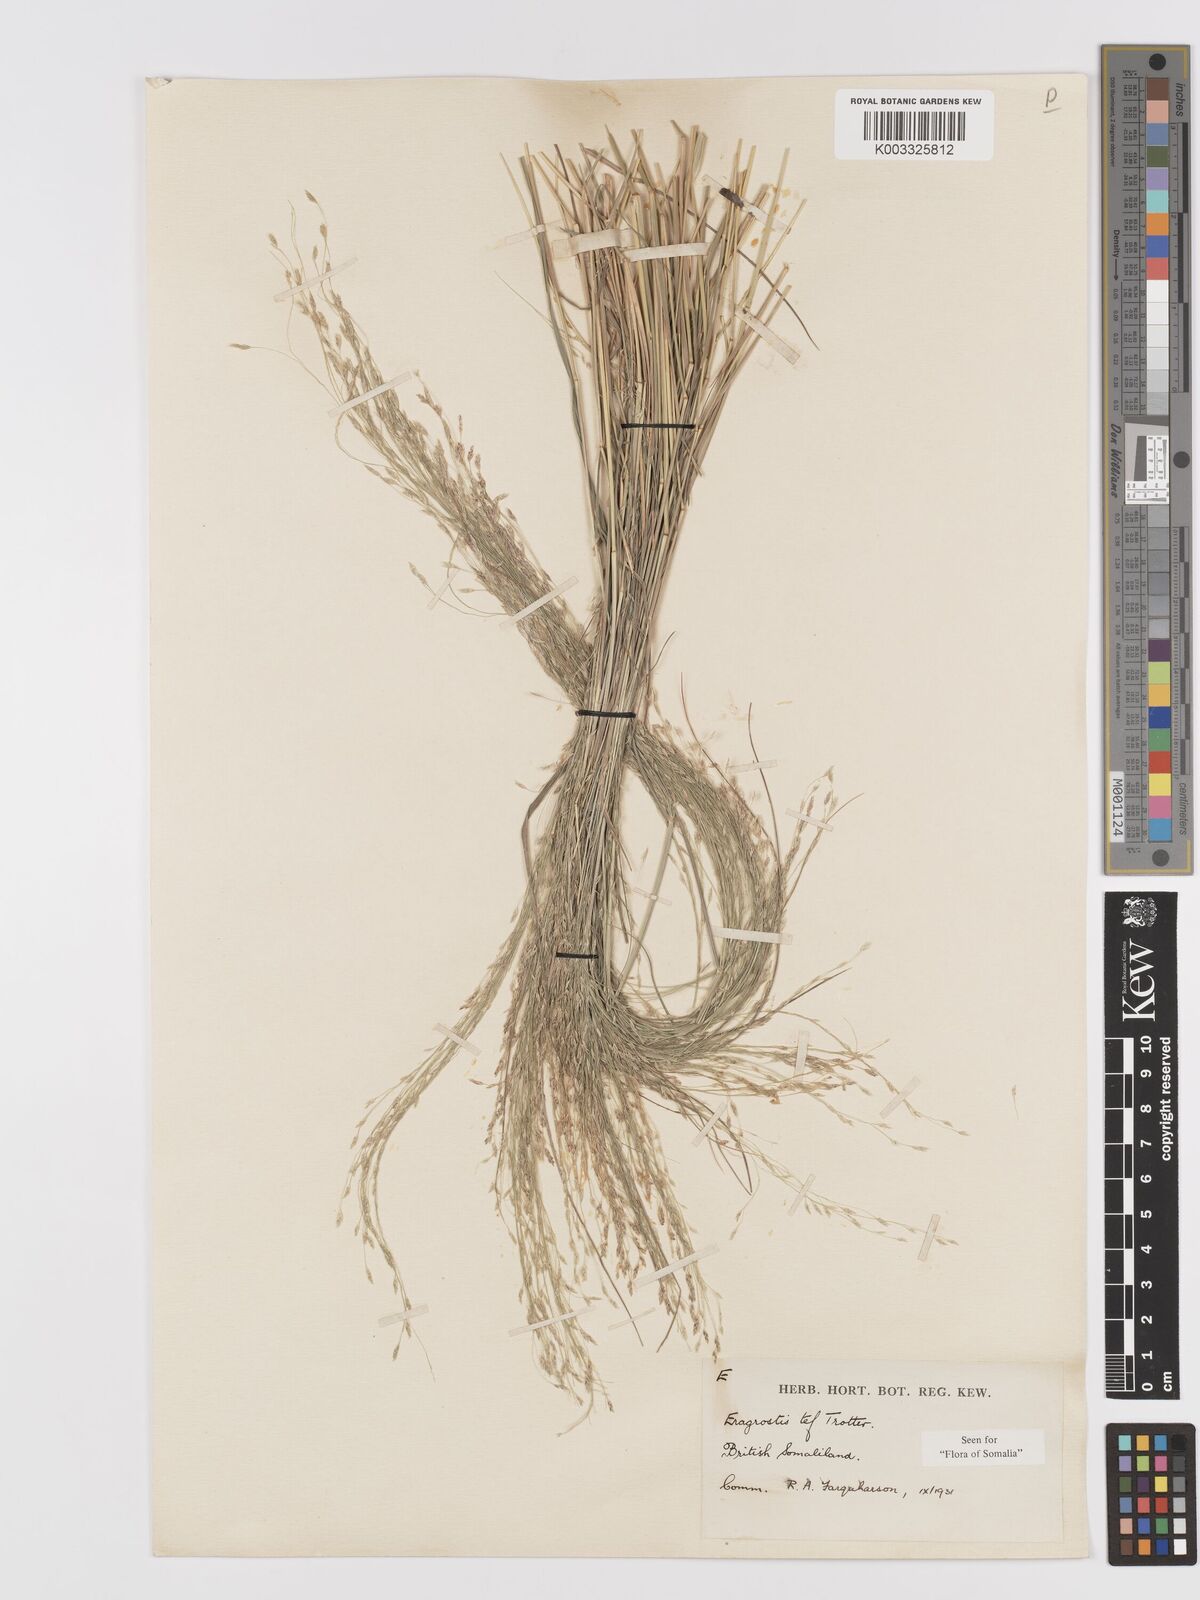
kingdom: Plantae
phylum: Tracheophyta
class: Liliopsida
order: Poales
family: Poaceae
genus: Eragrostis
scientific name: Eragrostis tef
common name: Teff
